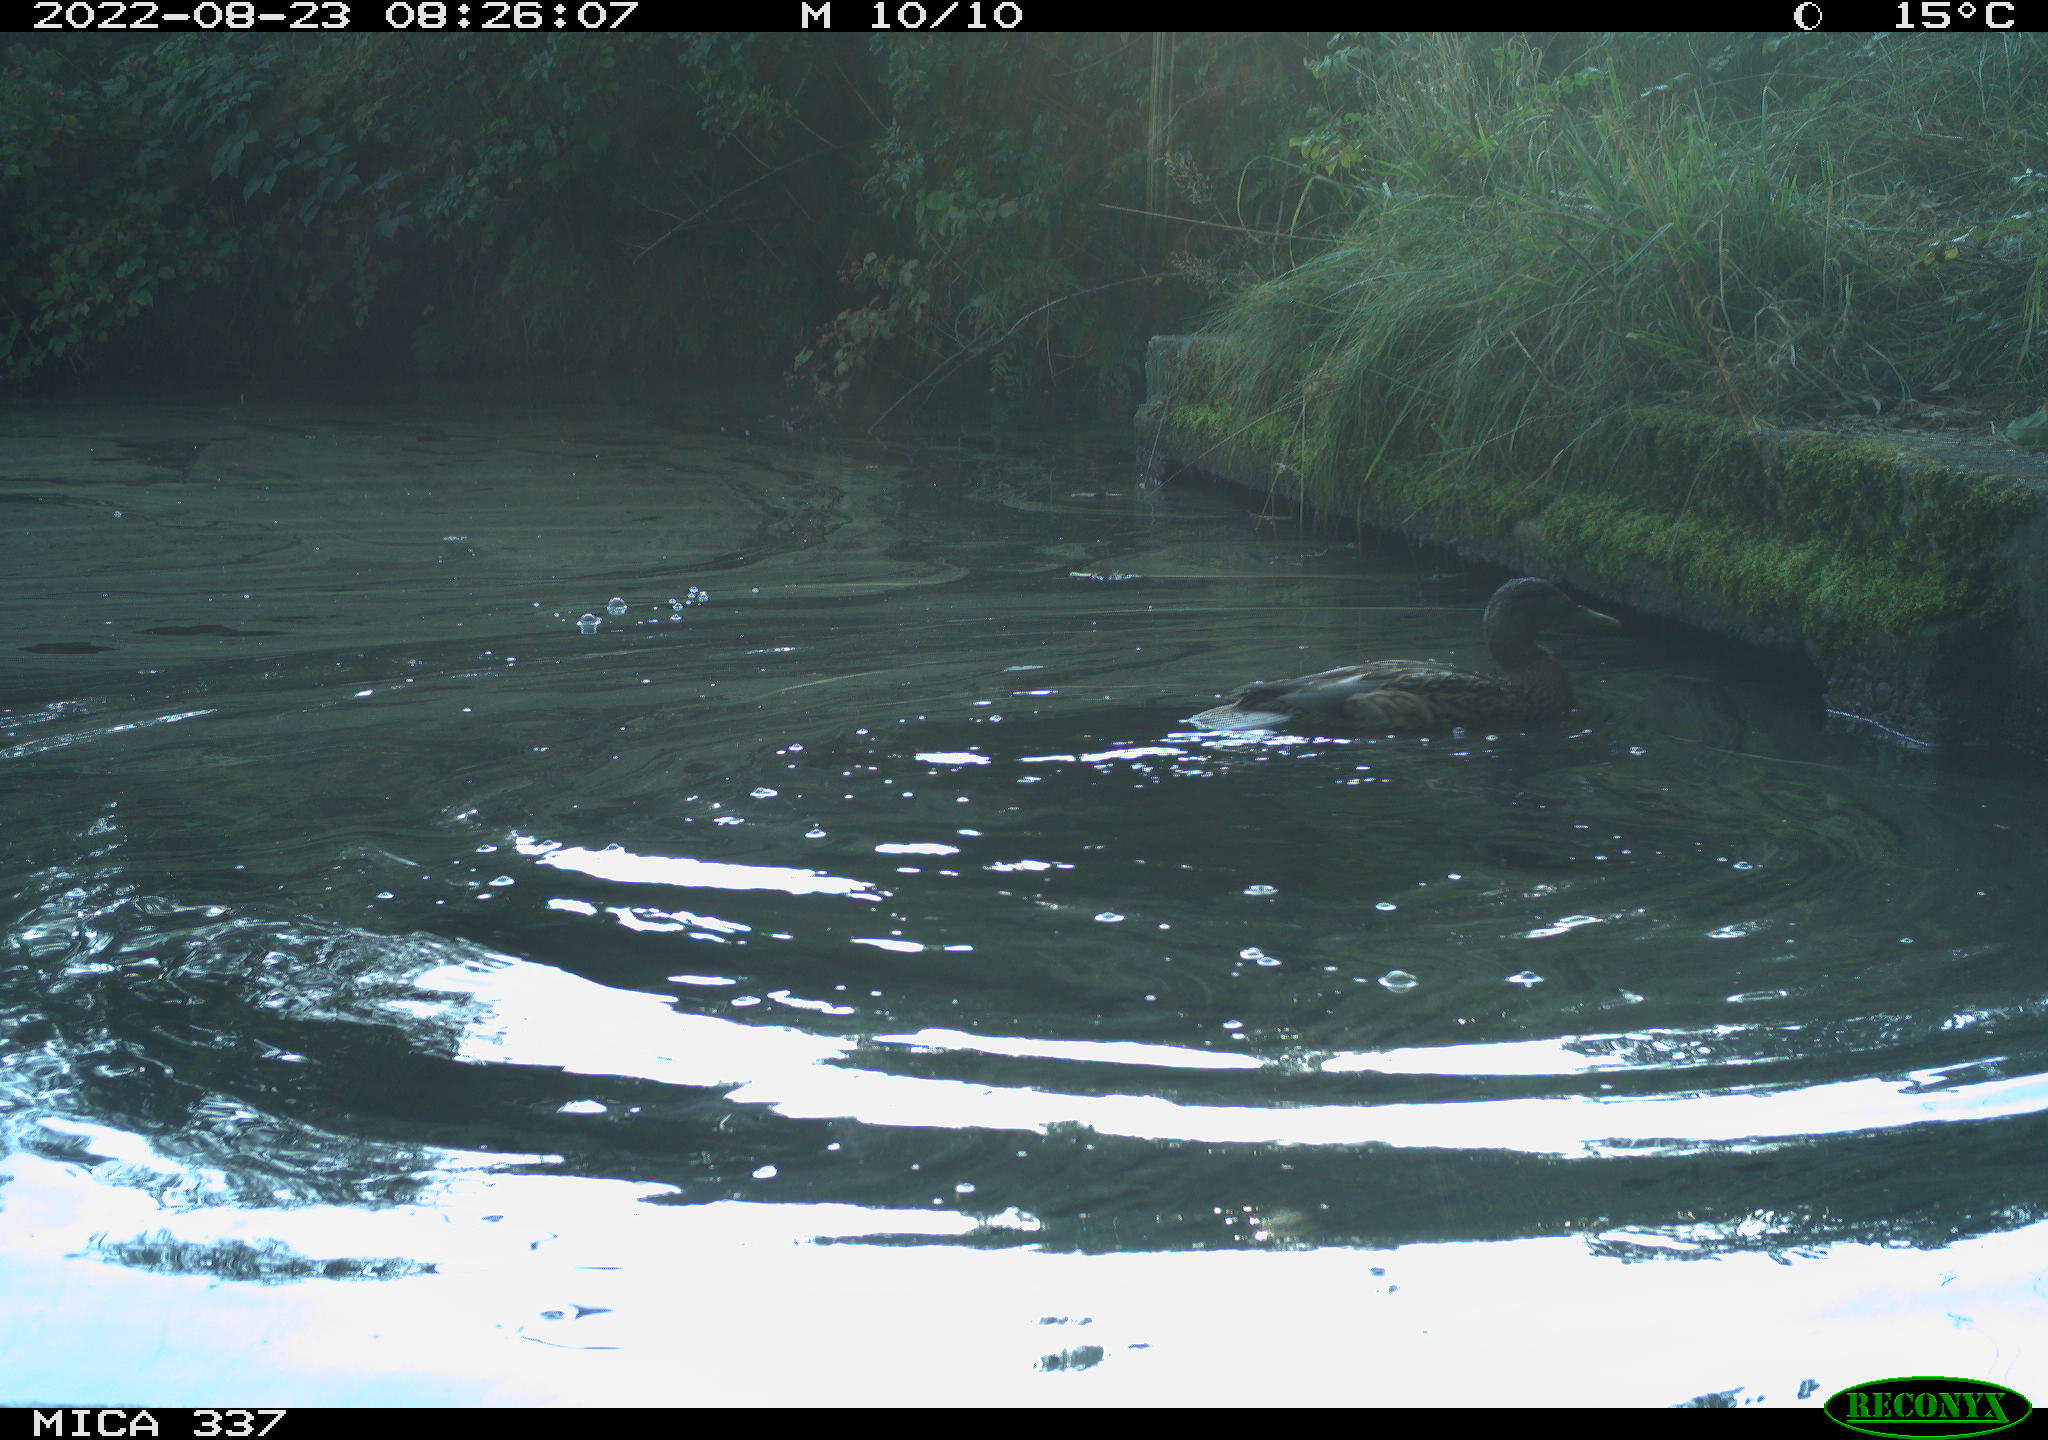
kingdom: Animalia
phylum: Chordata
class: Aves
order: Anseriformes
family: Anatidae
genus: Anas
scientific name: Anas platyrhynchos
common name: Mallard
